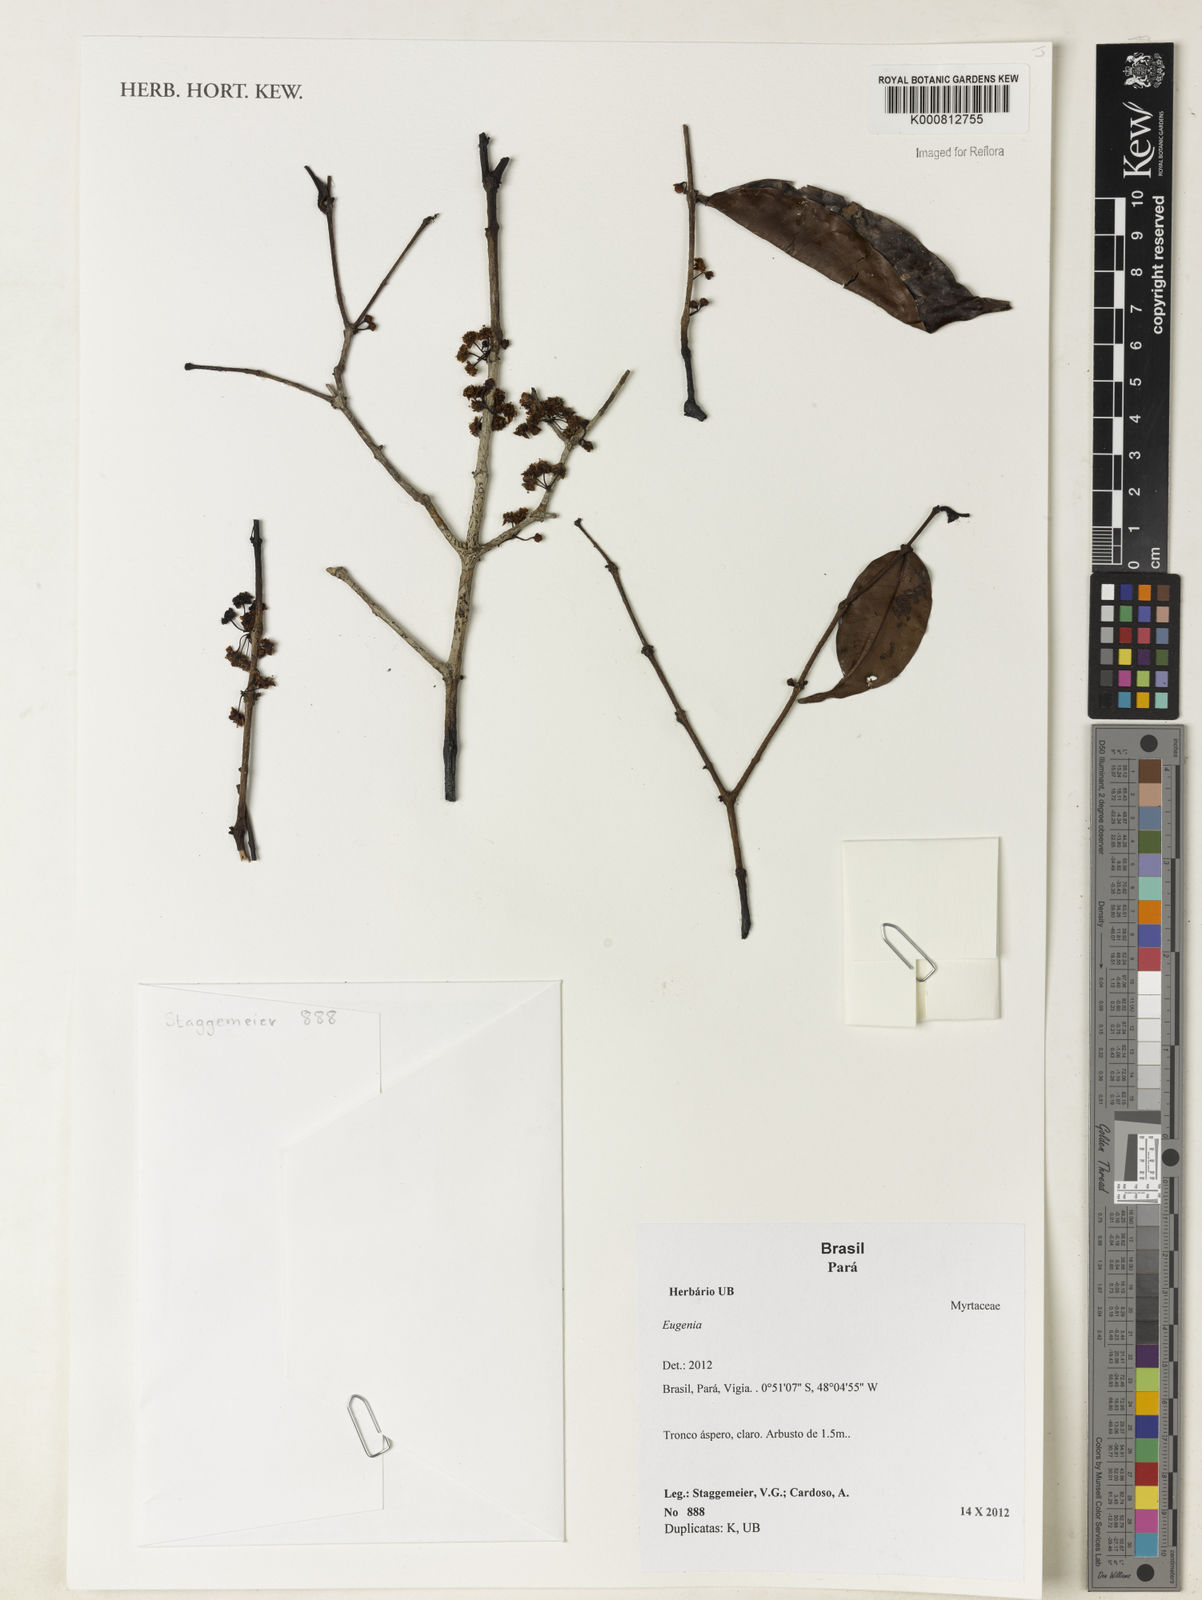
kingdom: Plantae
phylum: Tracheophyta
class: Magnoliopsida
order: Myrtales
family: Myrtaceae
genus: Eugenia
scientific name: Eugenia
